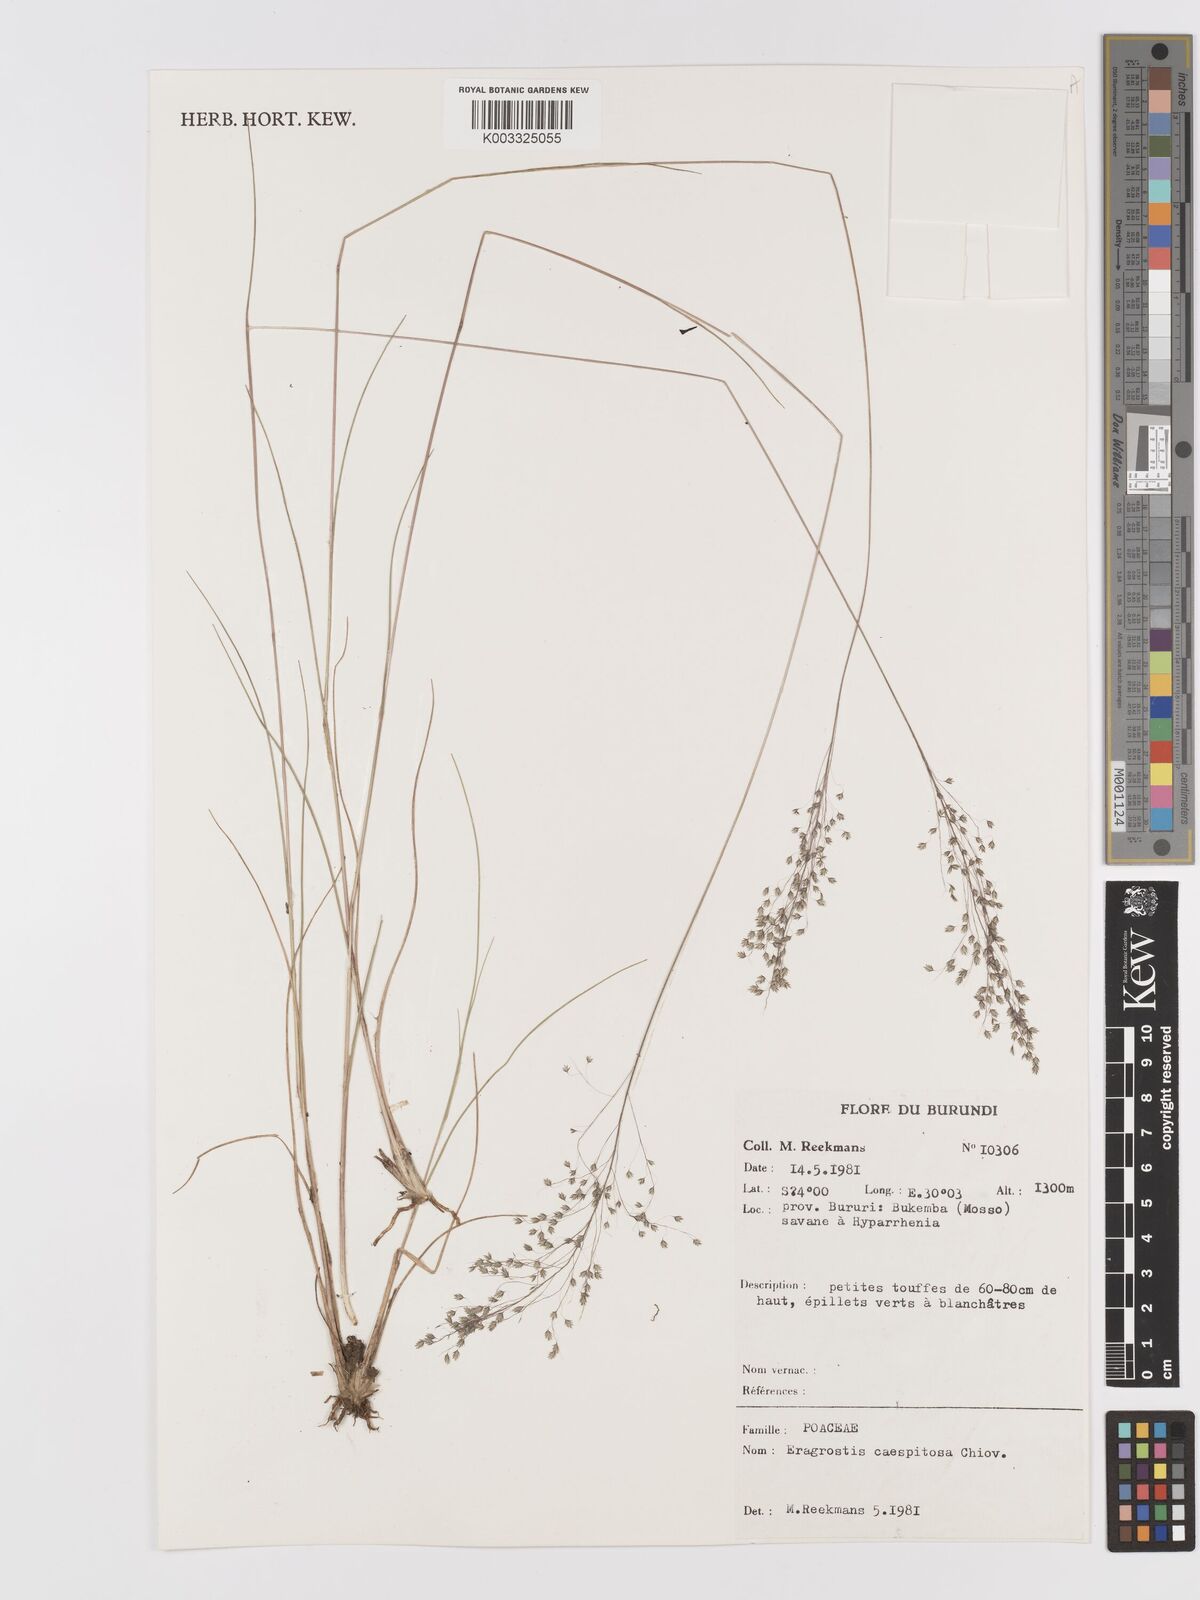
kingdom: Plantae
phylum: Tracheophyta
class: Liliopsida
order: Poales
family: Poaceae
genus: Eragrostis
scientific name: Eragrostis caespitosa
